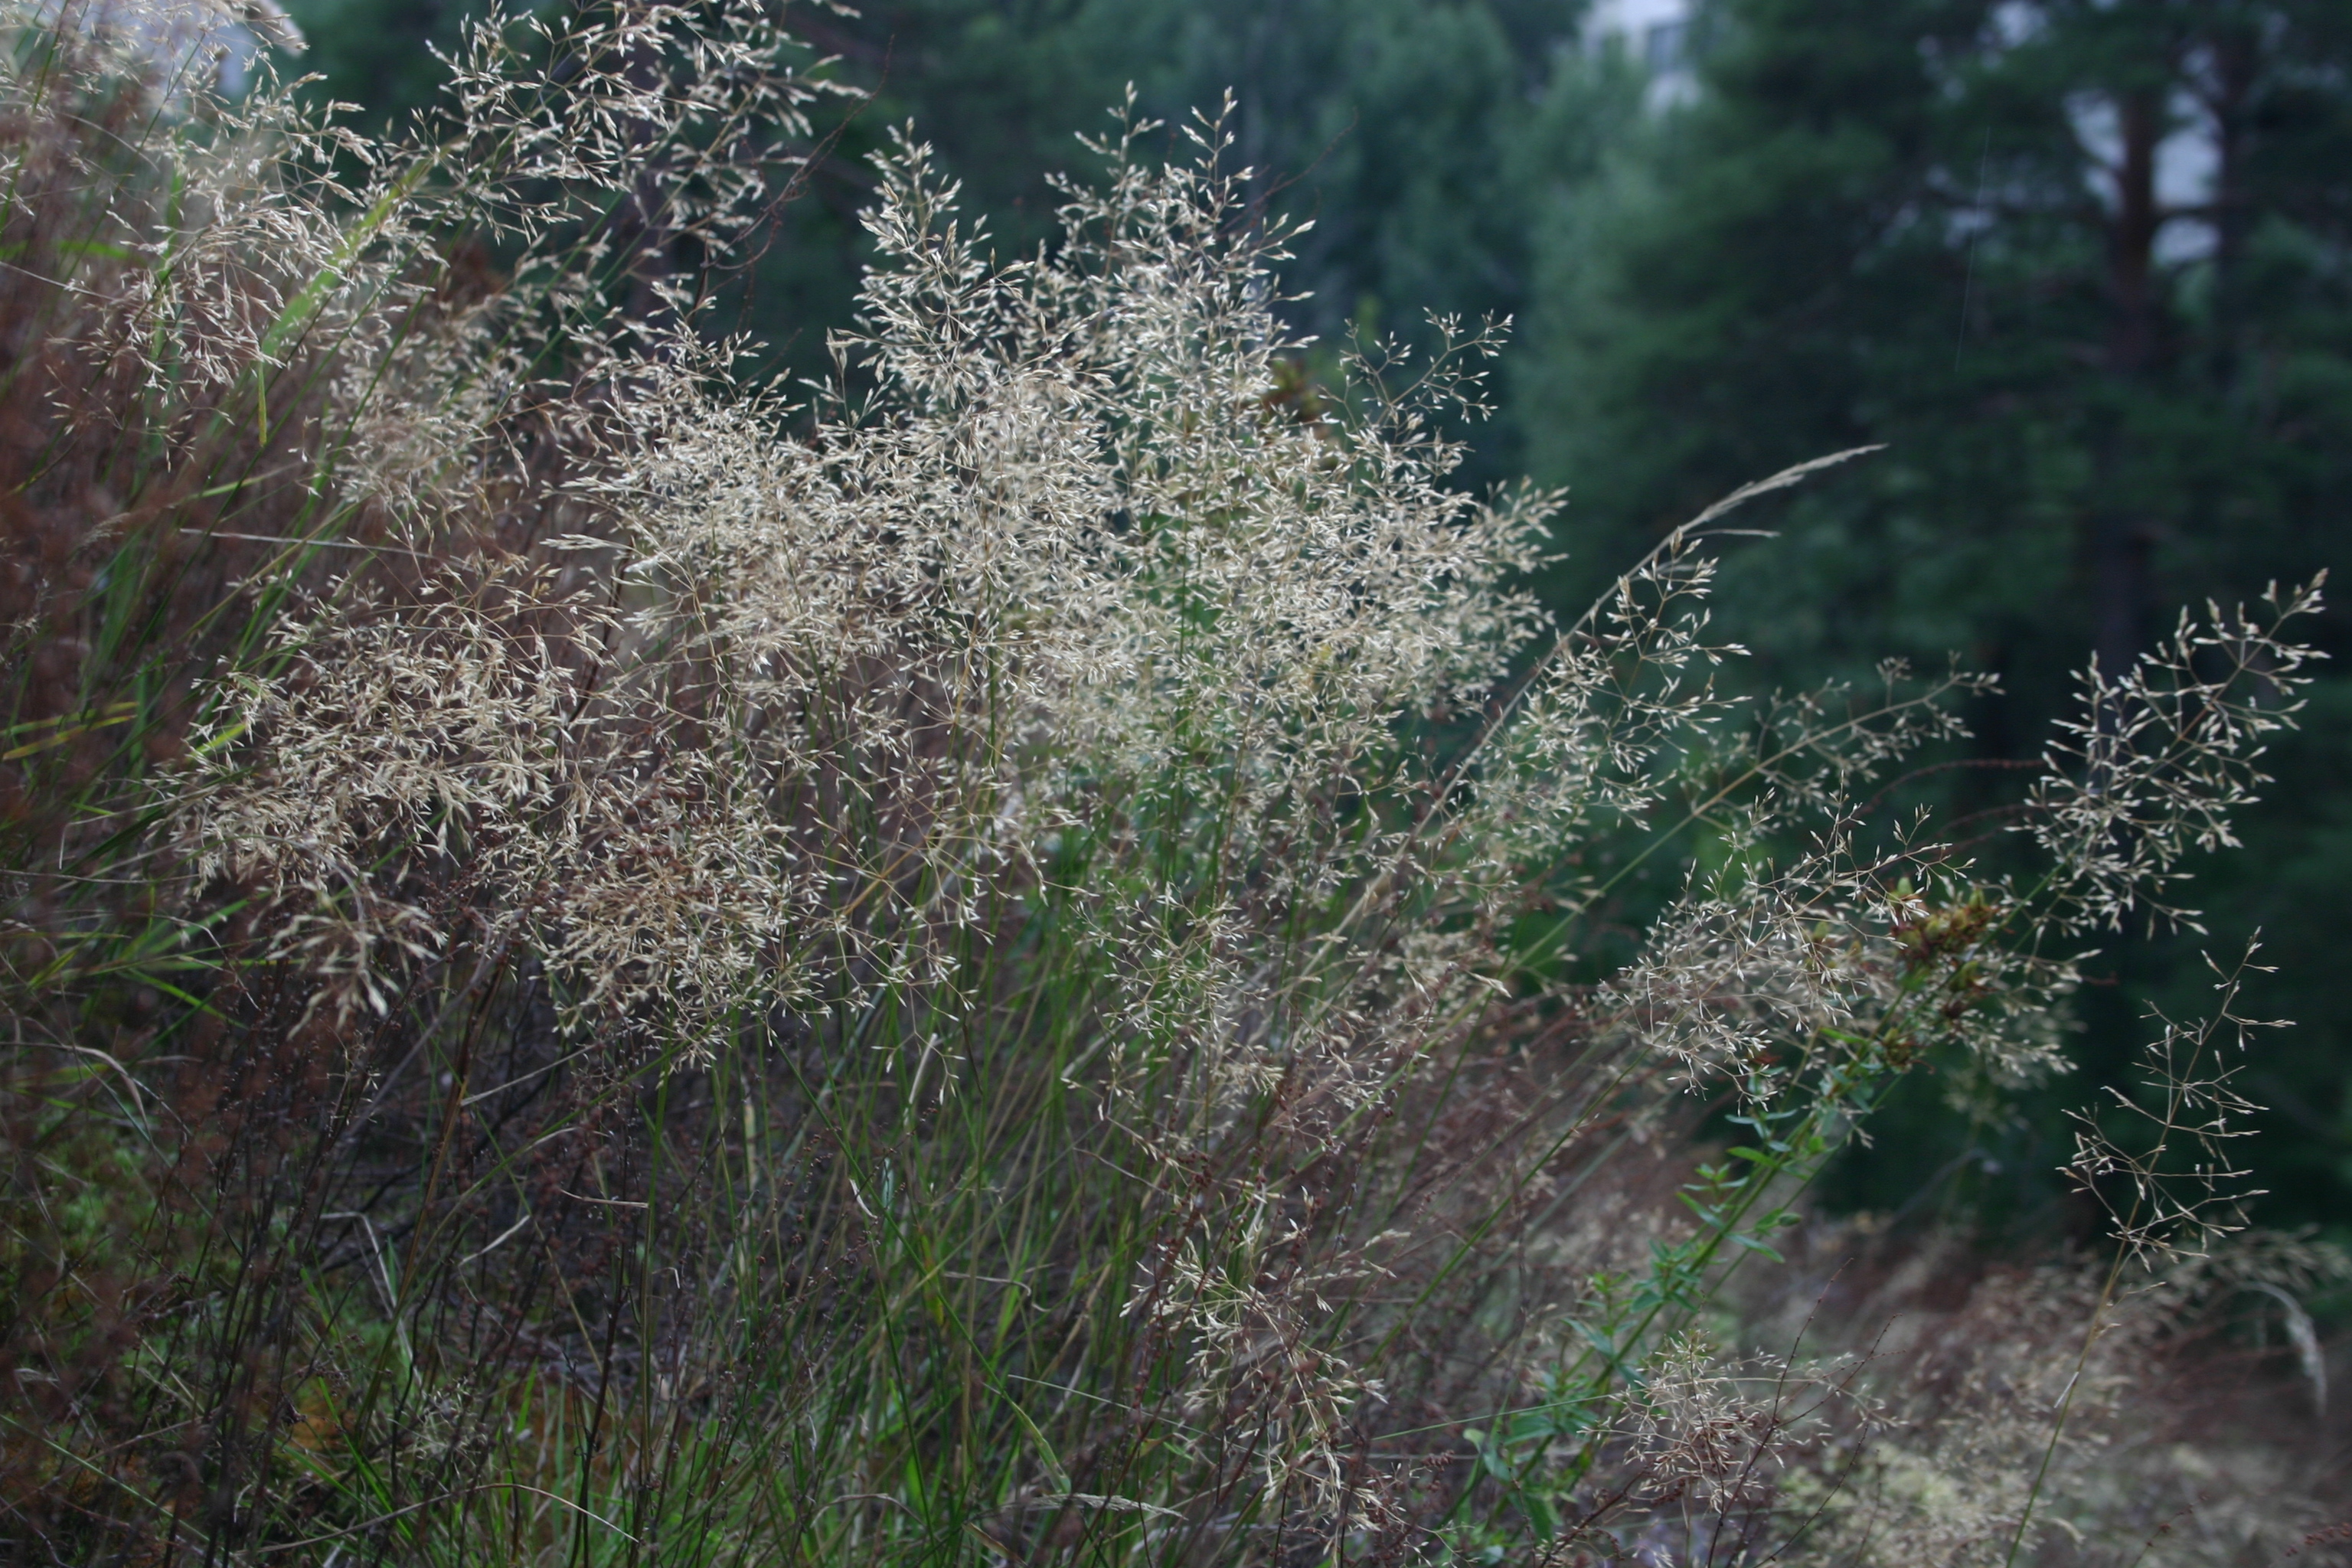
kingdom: Plantae
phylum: Tracheophyta
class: Liliopsida
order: Poales
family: Poaceae
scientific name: Poaceae
